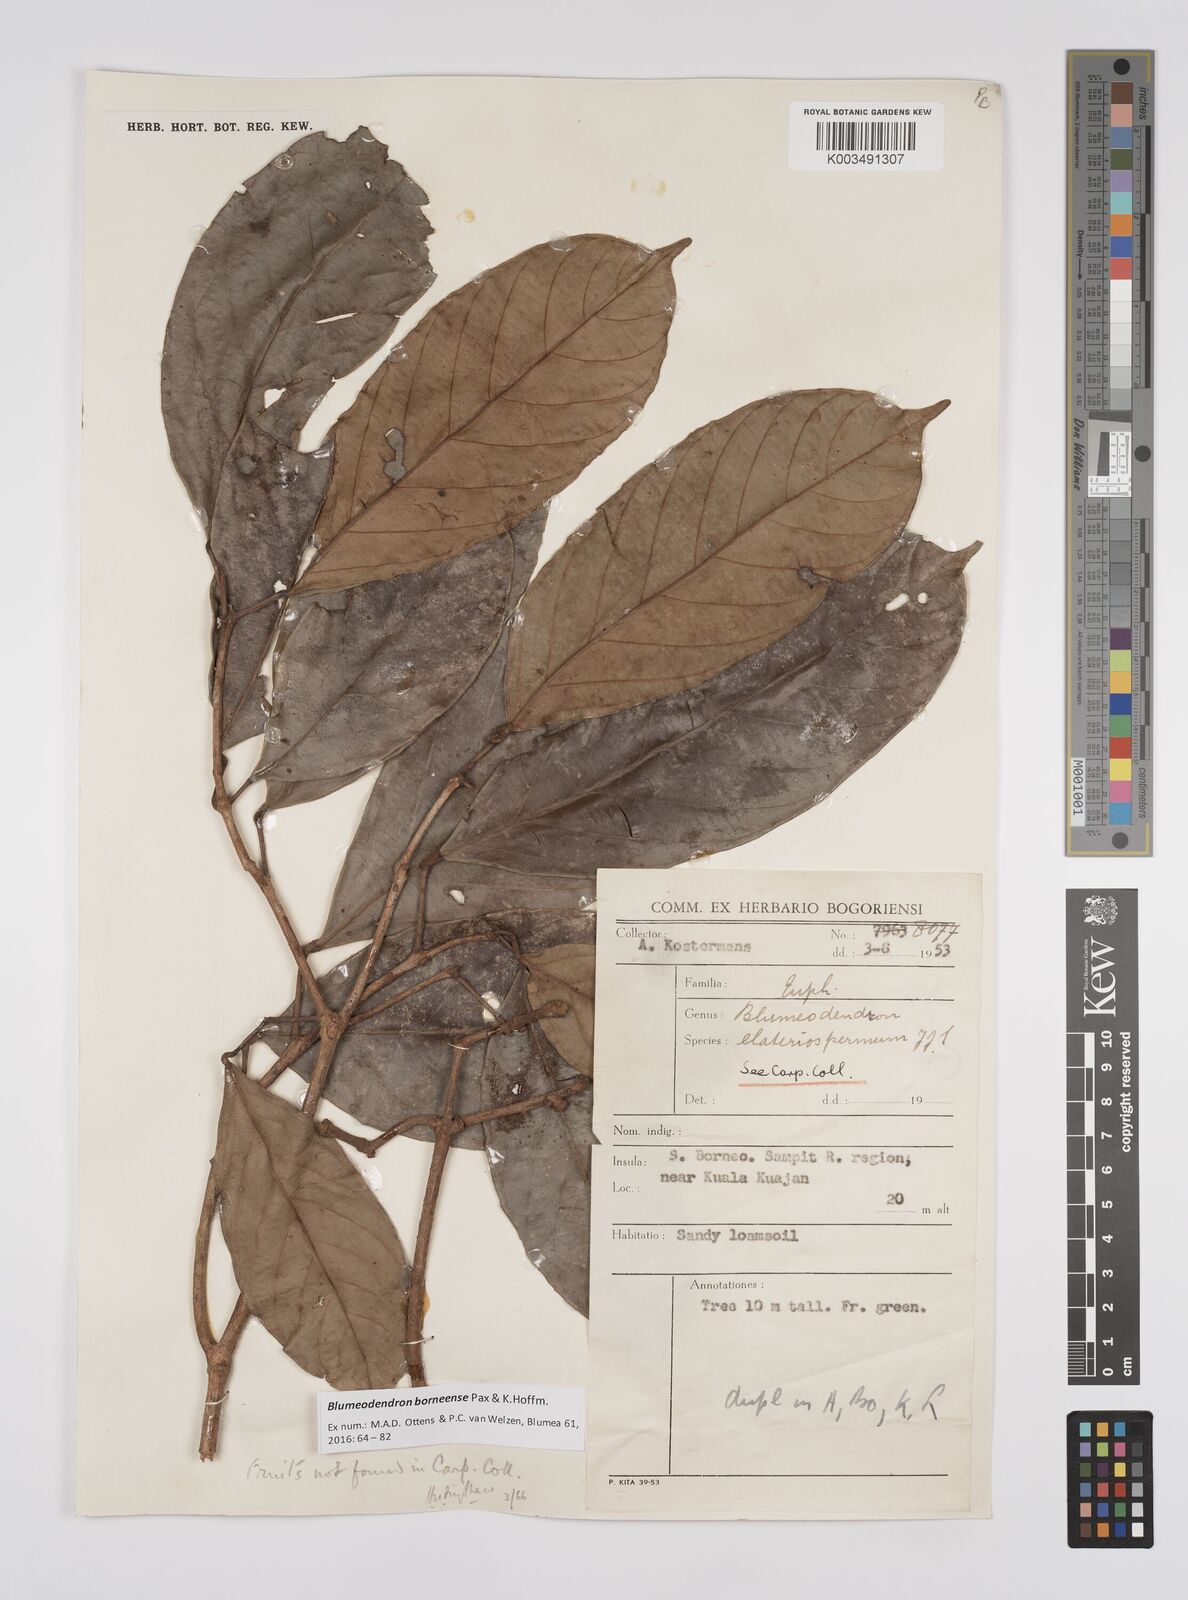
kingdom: Plantae
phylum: Tracheophyta
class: Magnoliopsida
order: Malpighiales
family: Euphorbiaceae
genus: Blumeodendron
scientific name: Blumeodendron borneense
